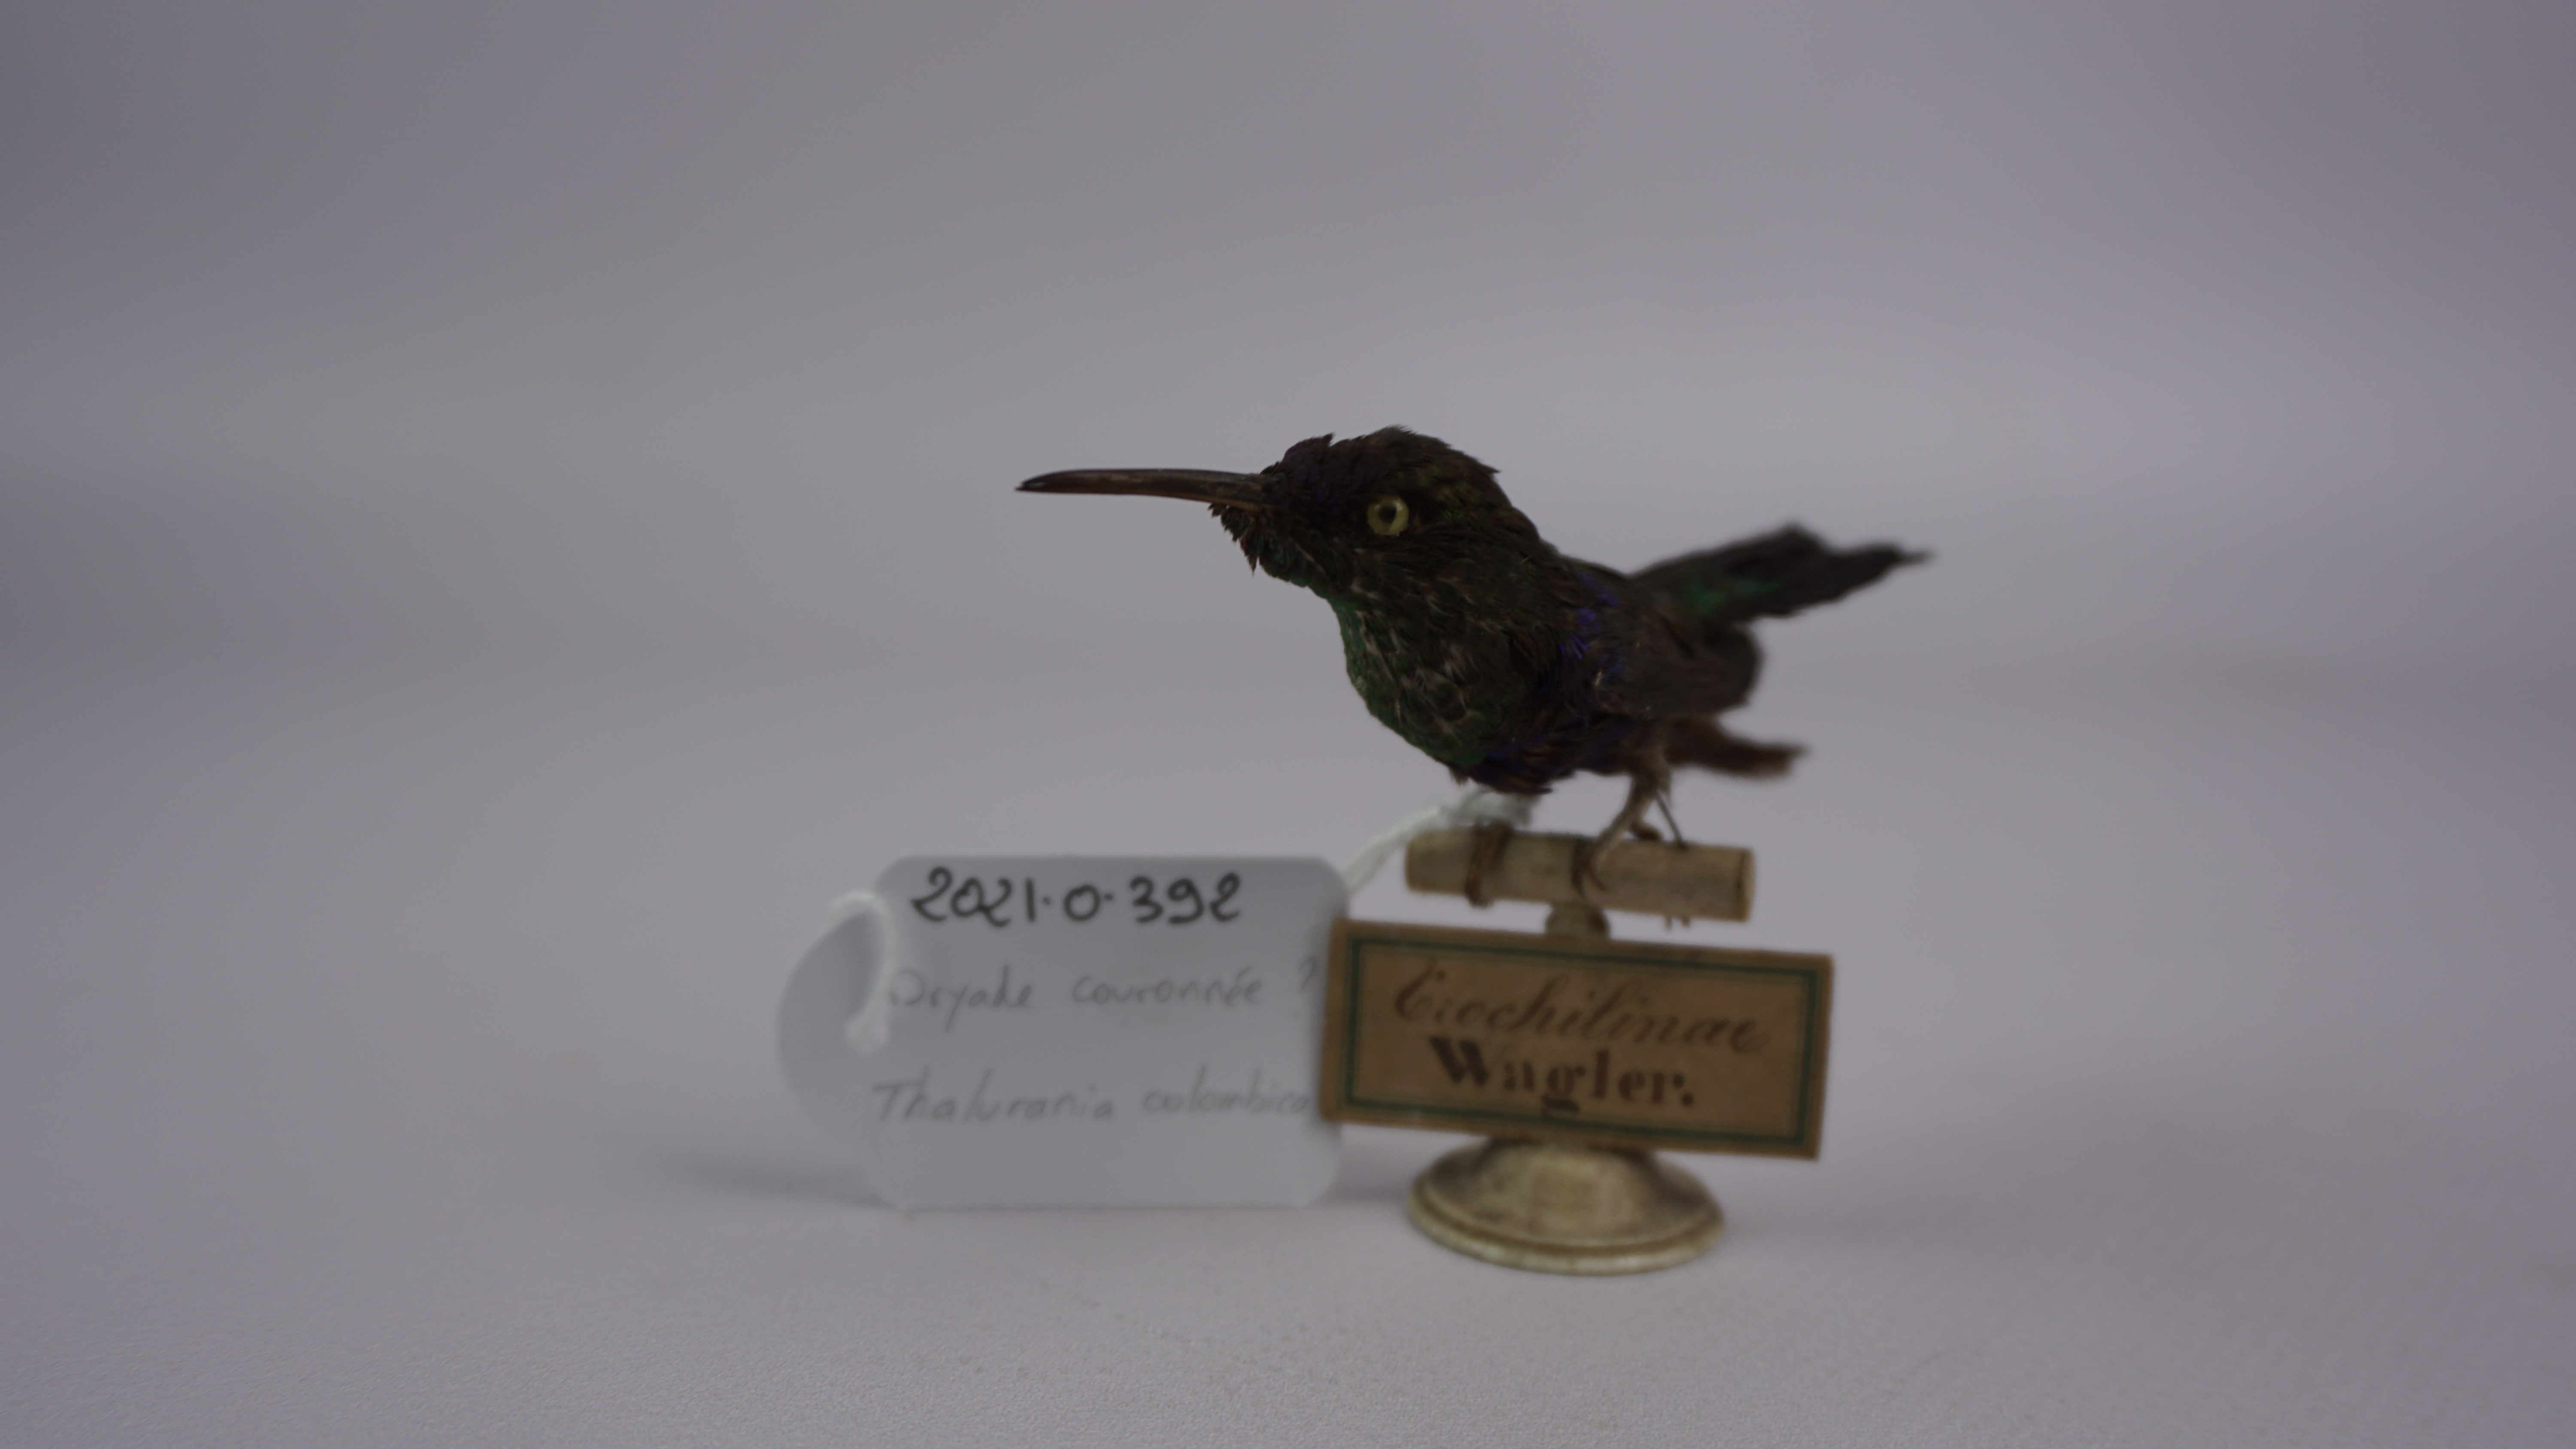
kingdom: Animalia
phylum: Chordata
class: Aves
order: Apodiformes
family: Trochilidae
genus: Thalurania
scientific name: Thalurania colombica
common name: Crowned woodnymph
